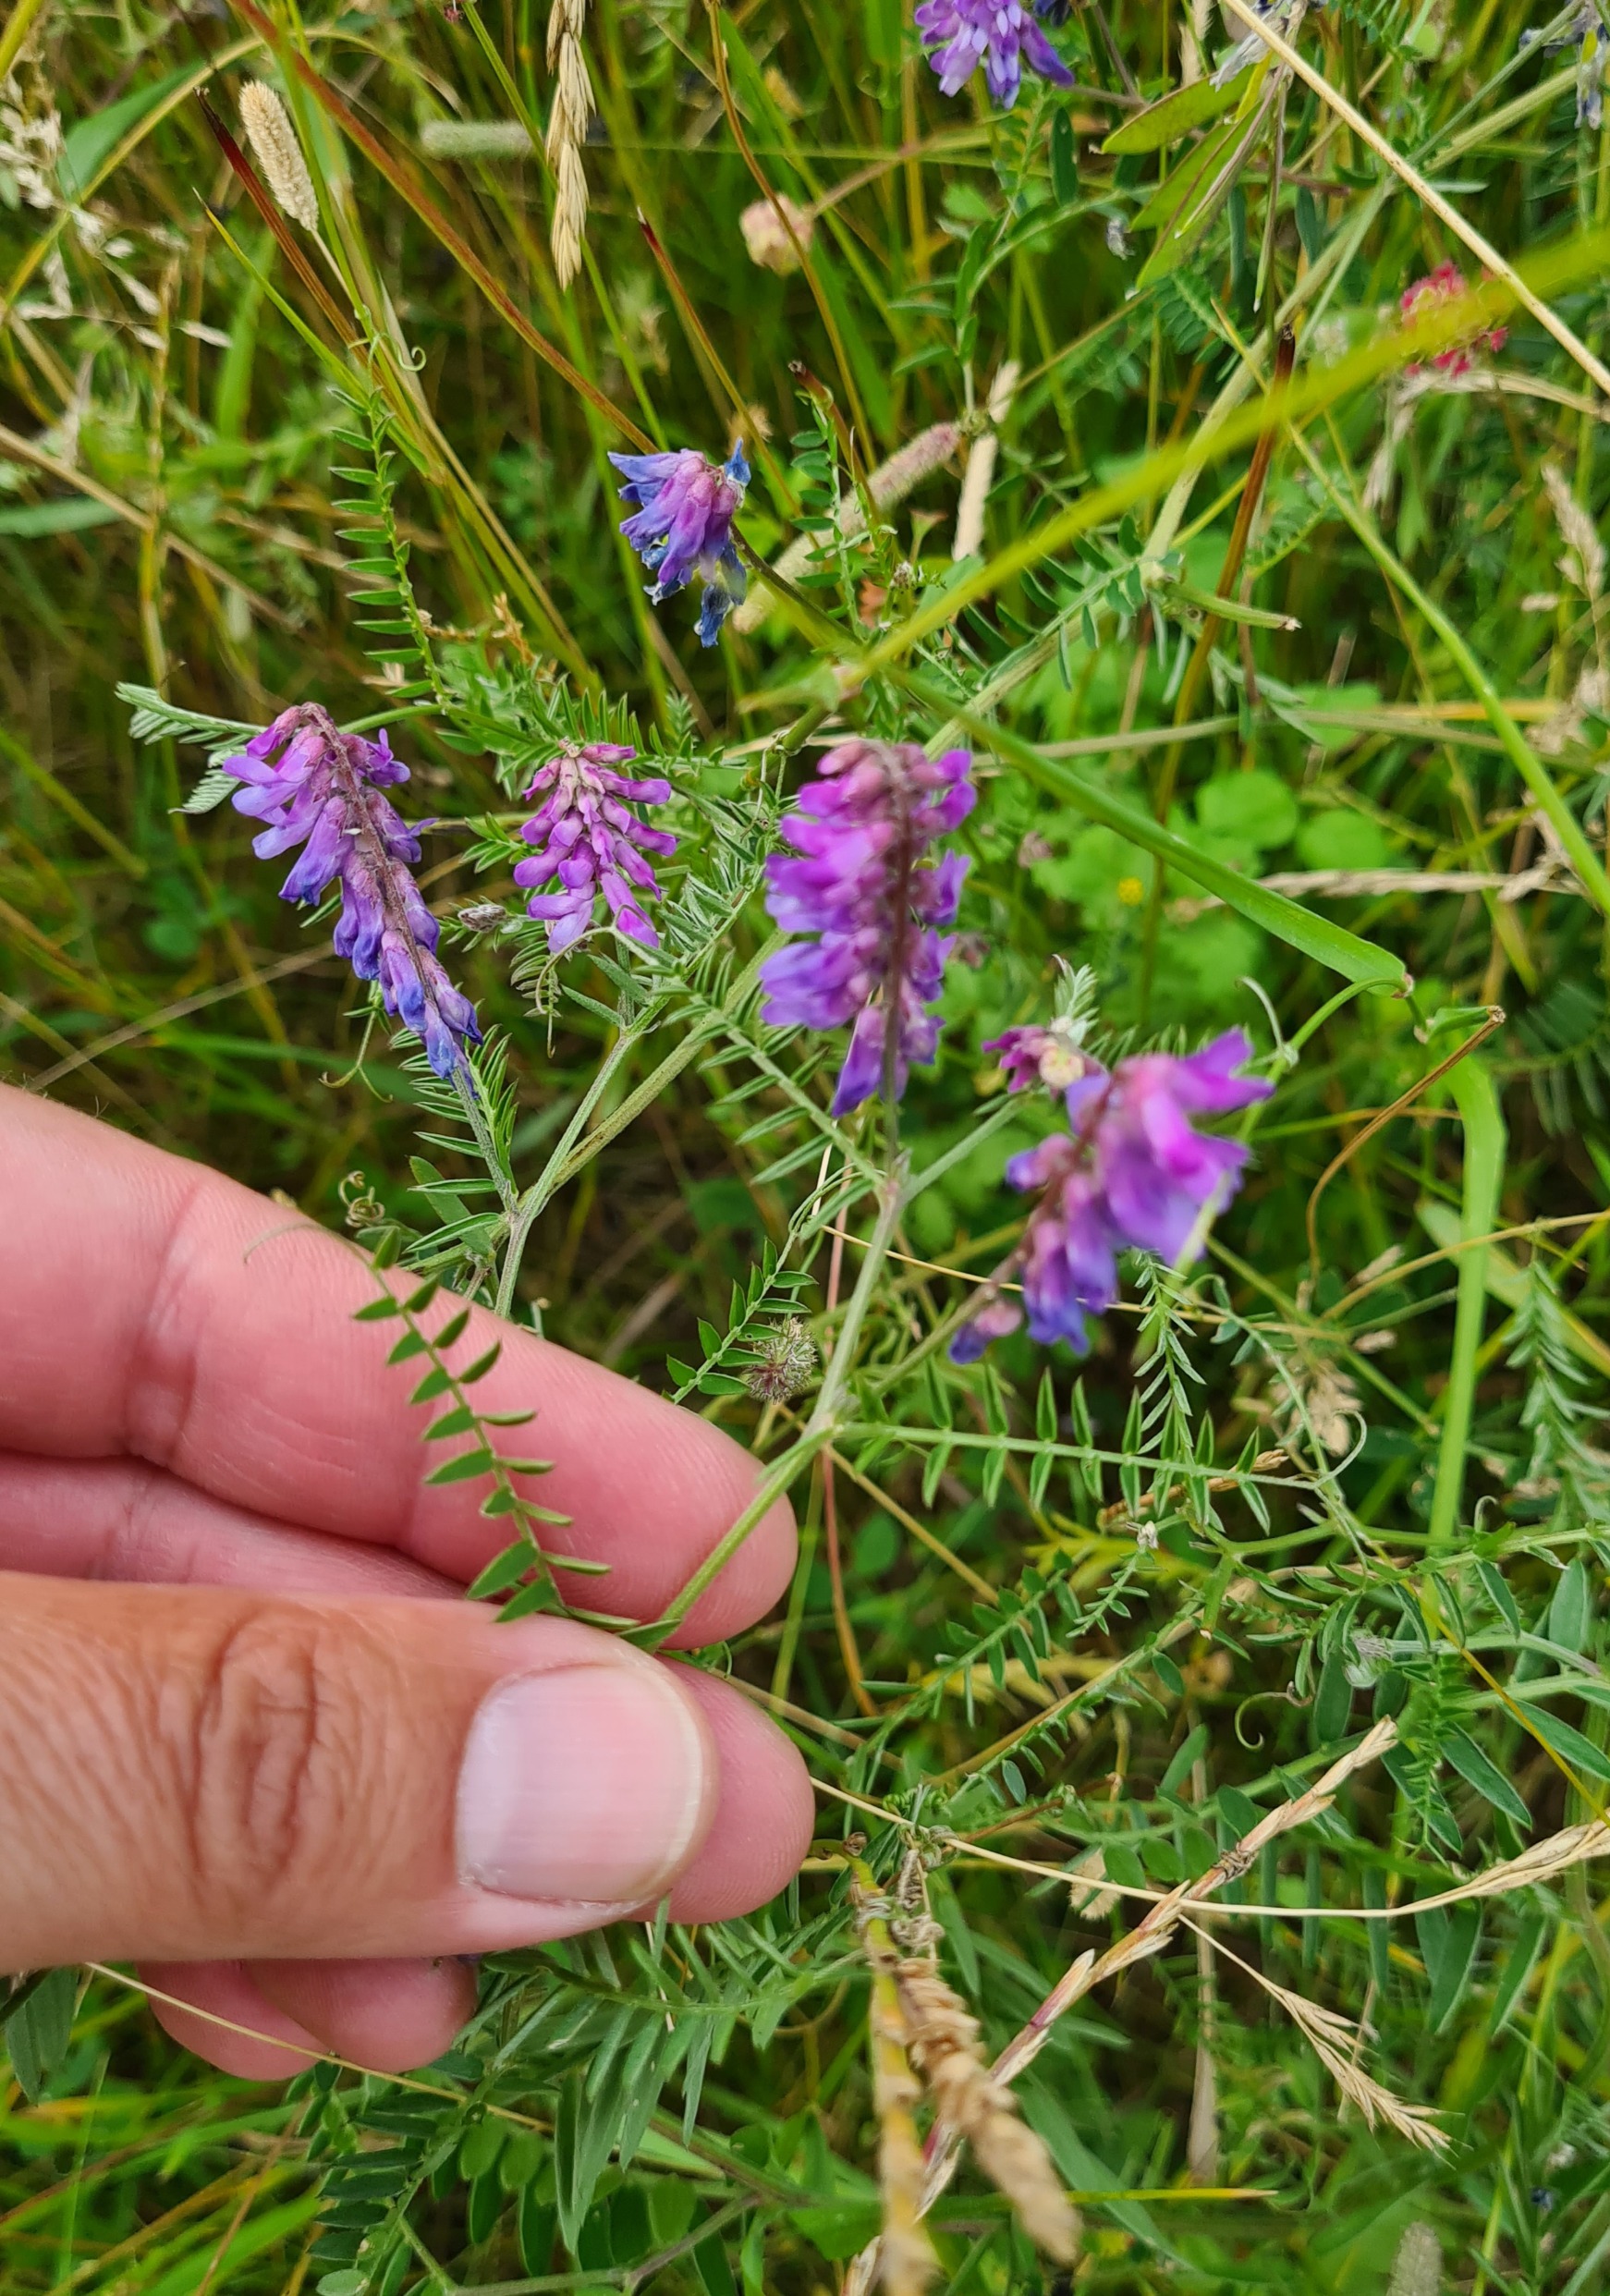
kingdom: Plantae
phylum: Tracheophyta
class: Magnoliopsida
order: Fabales
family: Fabaceae
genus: Vicia
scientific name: Vicia cracca
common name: Muse-vikke
